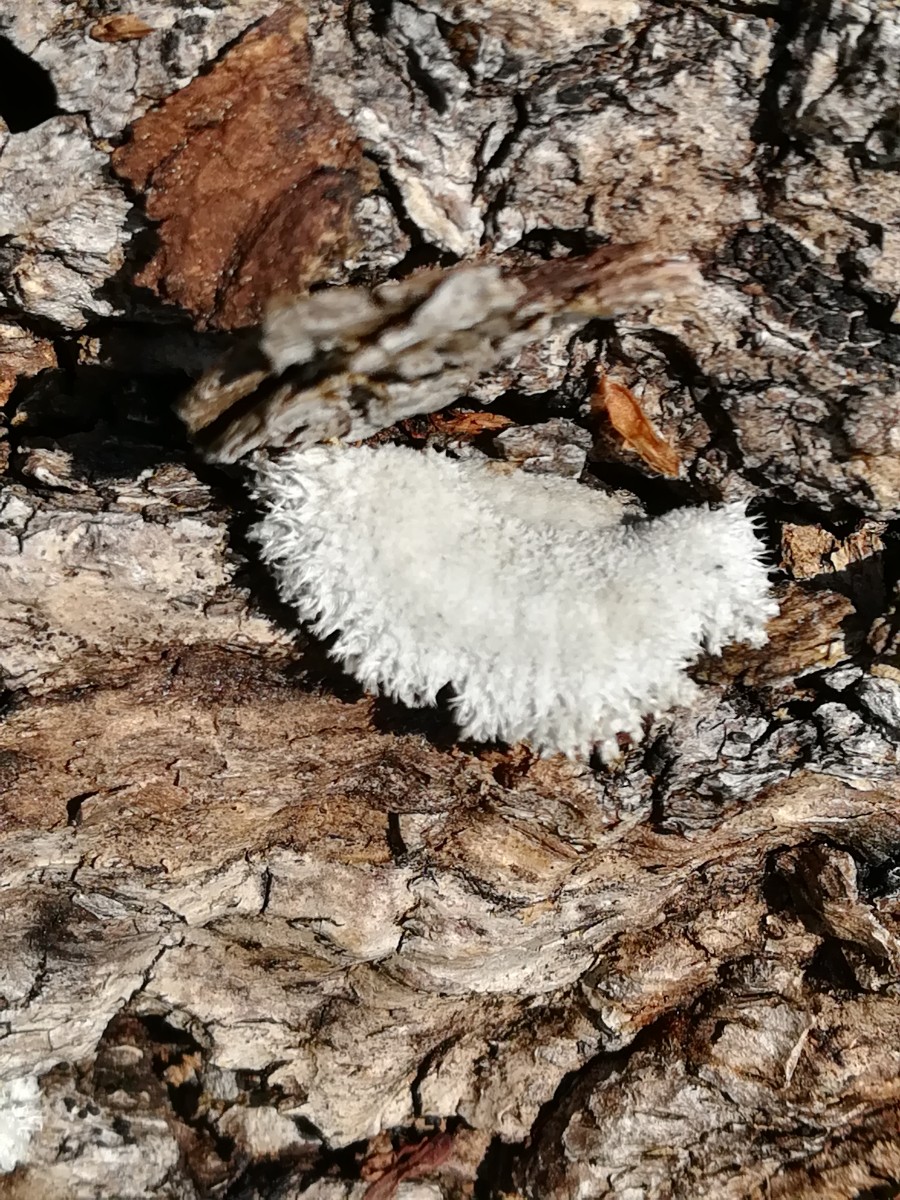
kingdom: Fungi
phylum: Basidiomycota
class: Agaricomycetes
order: Agaricales
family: Schizophyllaceae
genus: Schizophyllum
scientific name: Schizophyllum commune
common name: kløvblad
